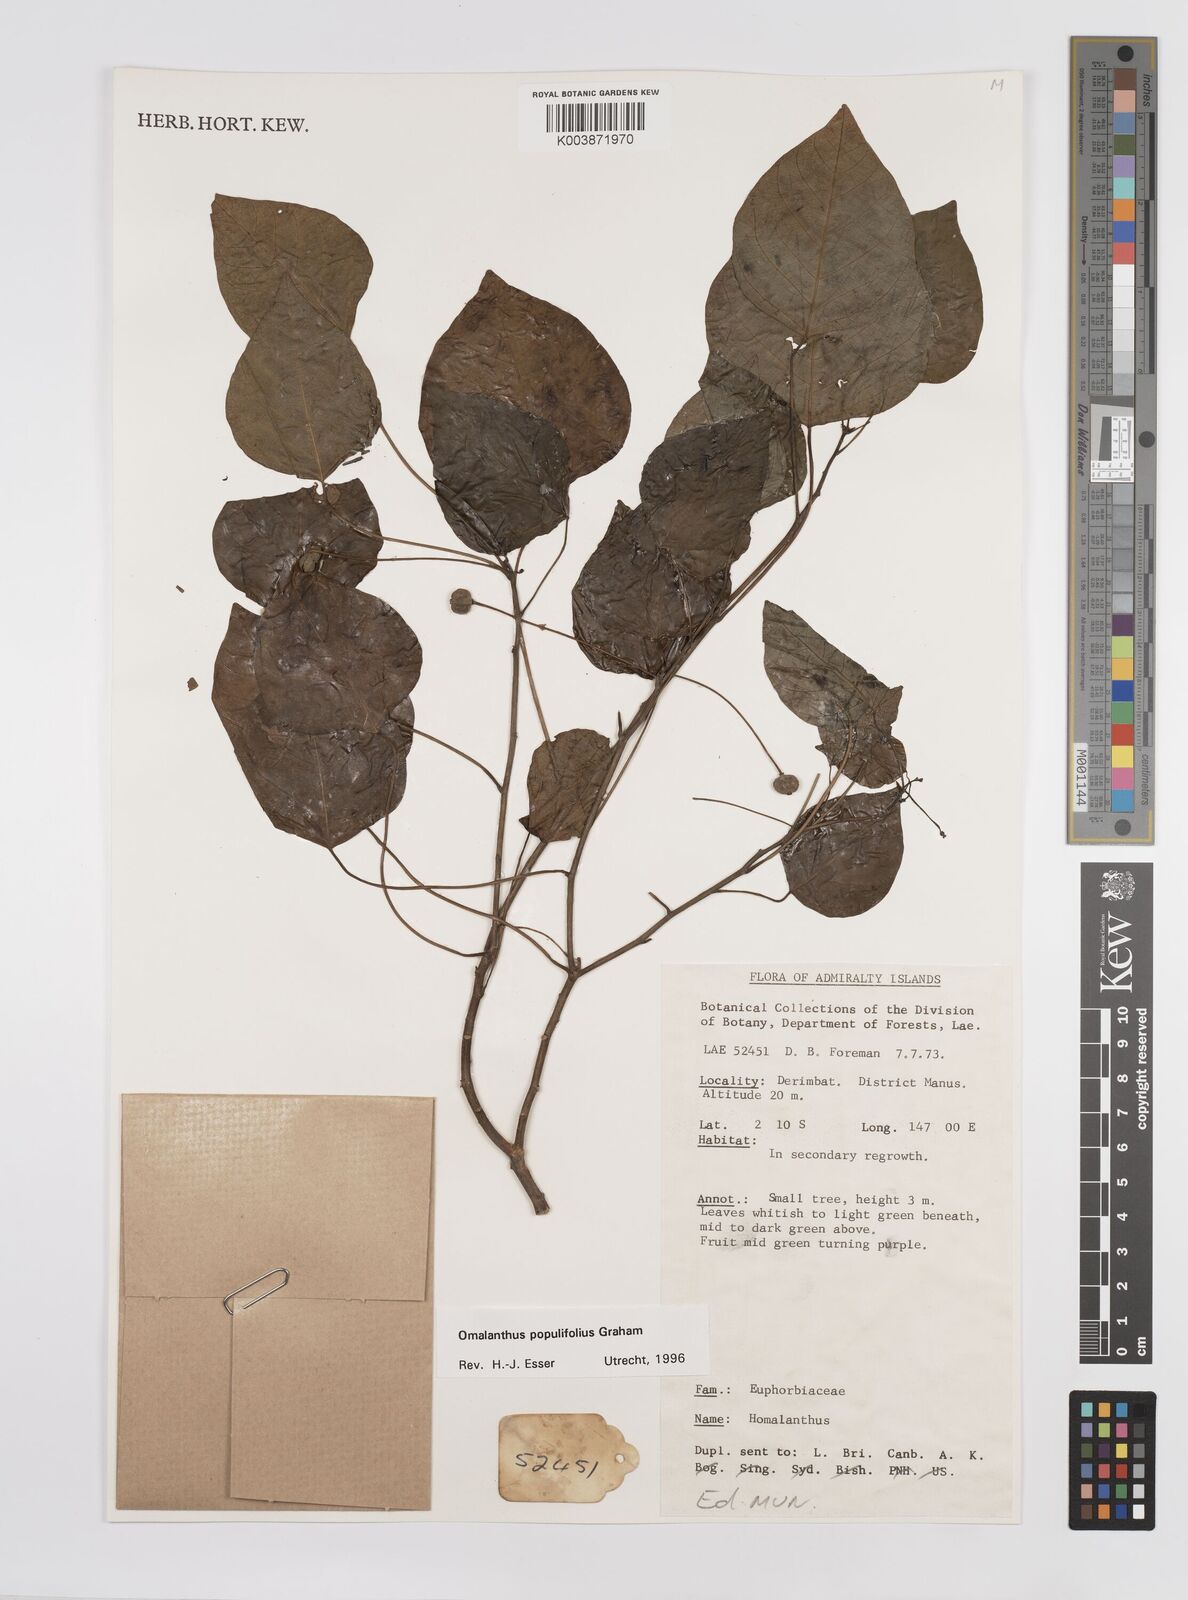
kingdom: Plantae
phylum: Tracheophyta
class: Magnoliopsida
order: Malpighiales
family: Euphorbiaceae
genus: Homalanthus
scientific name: Homalanthus populifolius
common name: Queensland poplar
